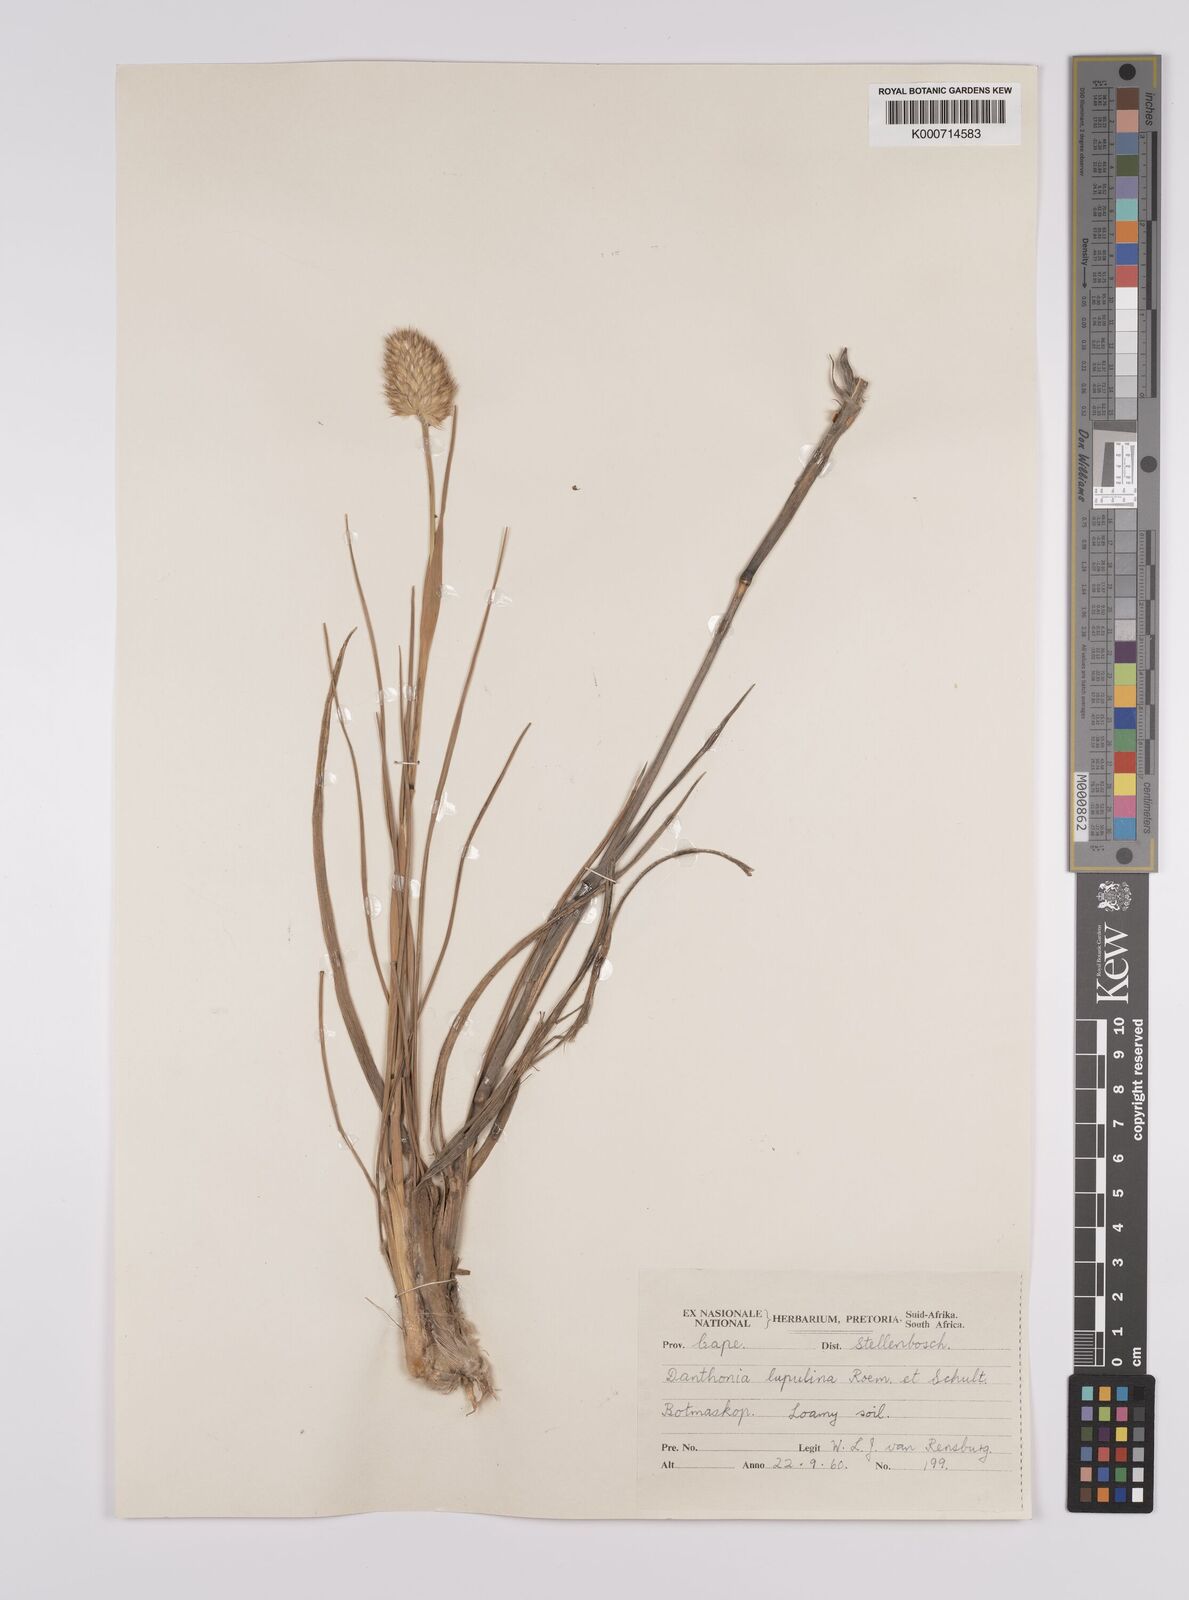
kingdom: Plantae
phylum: Tracheophyta
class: Liliopsida
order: Poales
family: Poaceae
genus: Rytidosperma
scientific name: Rytidosperma
